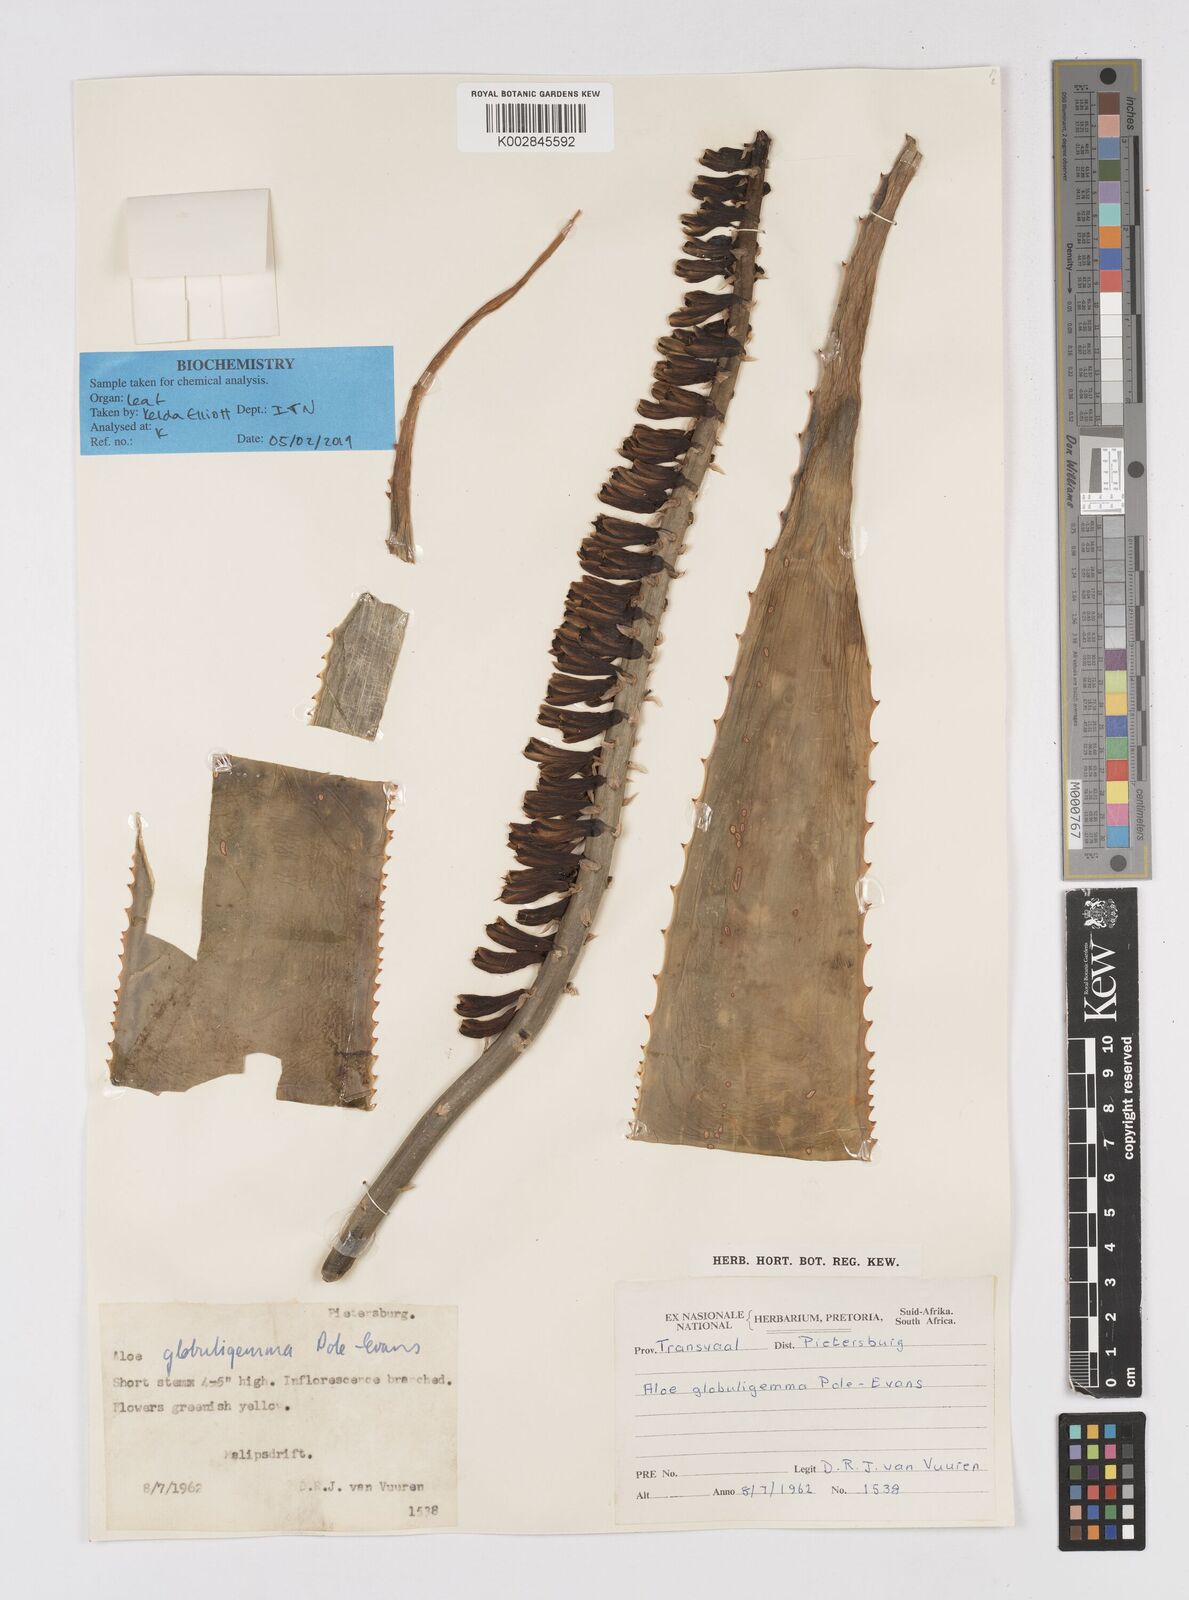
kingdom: Plantae
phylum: Tracheophyta
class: Liliopsida
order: Asparagales
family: Asphodelaceae
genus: Aloe
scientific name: Aloe globuligemma
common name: Witchdoctor's aloe
